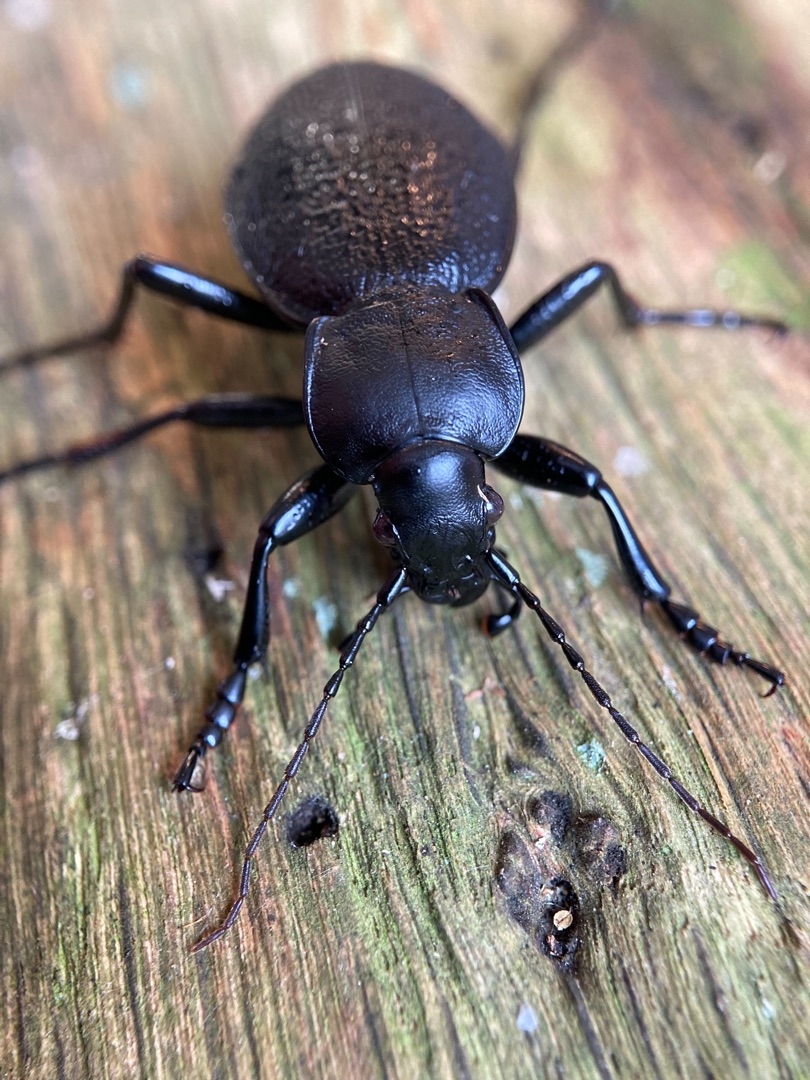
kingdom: Animalia
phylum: Arthropoda
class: Insecta
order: Coleoptera
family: Carabidae
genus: Carabus
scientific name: Carabus coriaceus
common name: Læderløber
